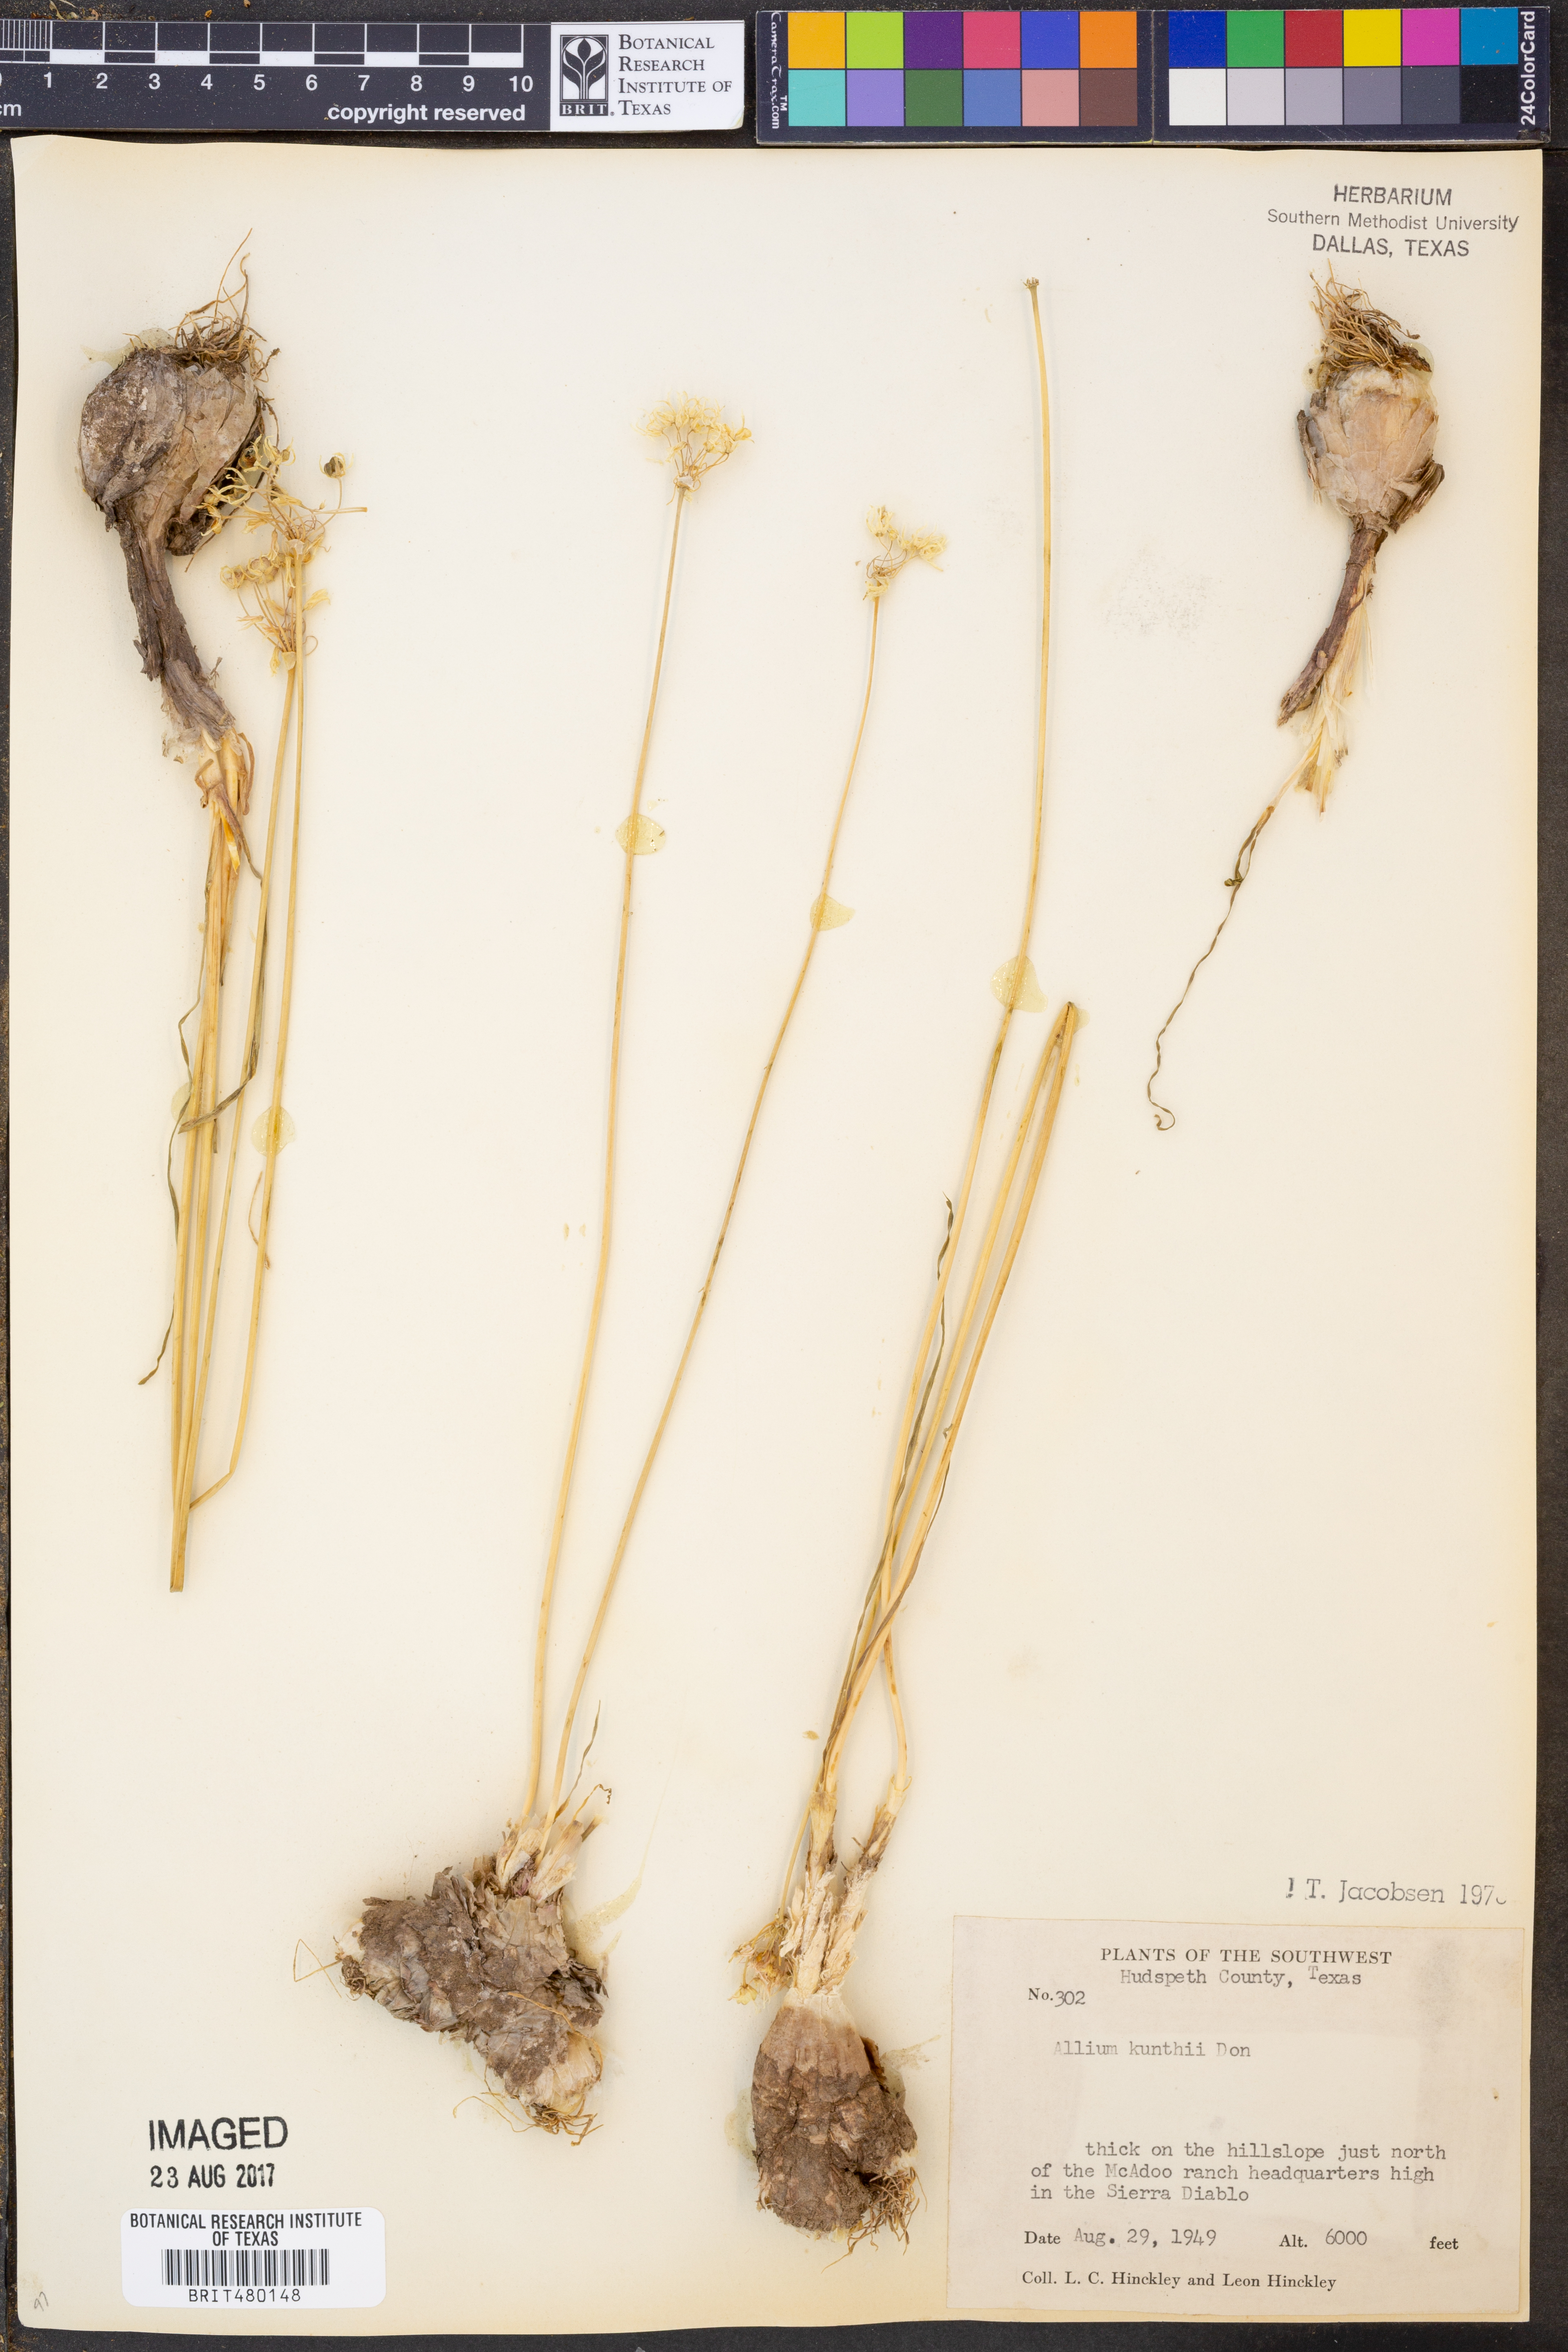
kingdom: Plantae
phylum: Tracheophyta
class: Liliopsida
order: Asparagales
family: Amaryllidaceae
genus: Allium
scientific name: Allium longifolium
